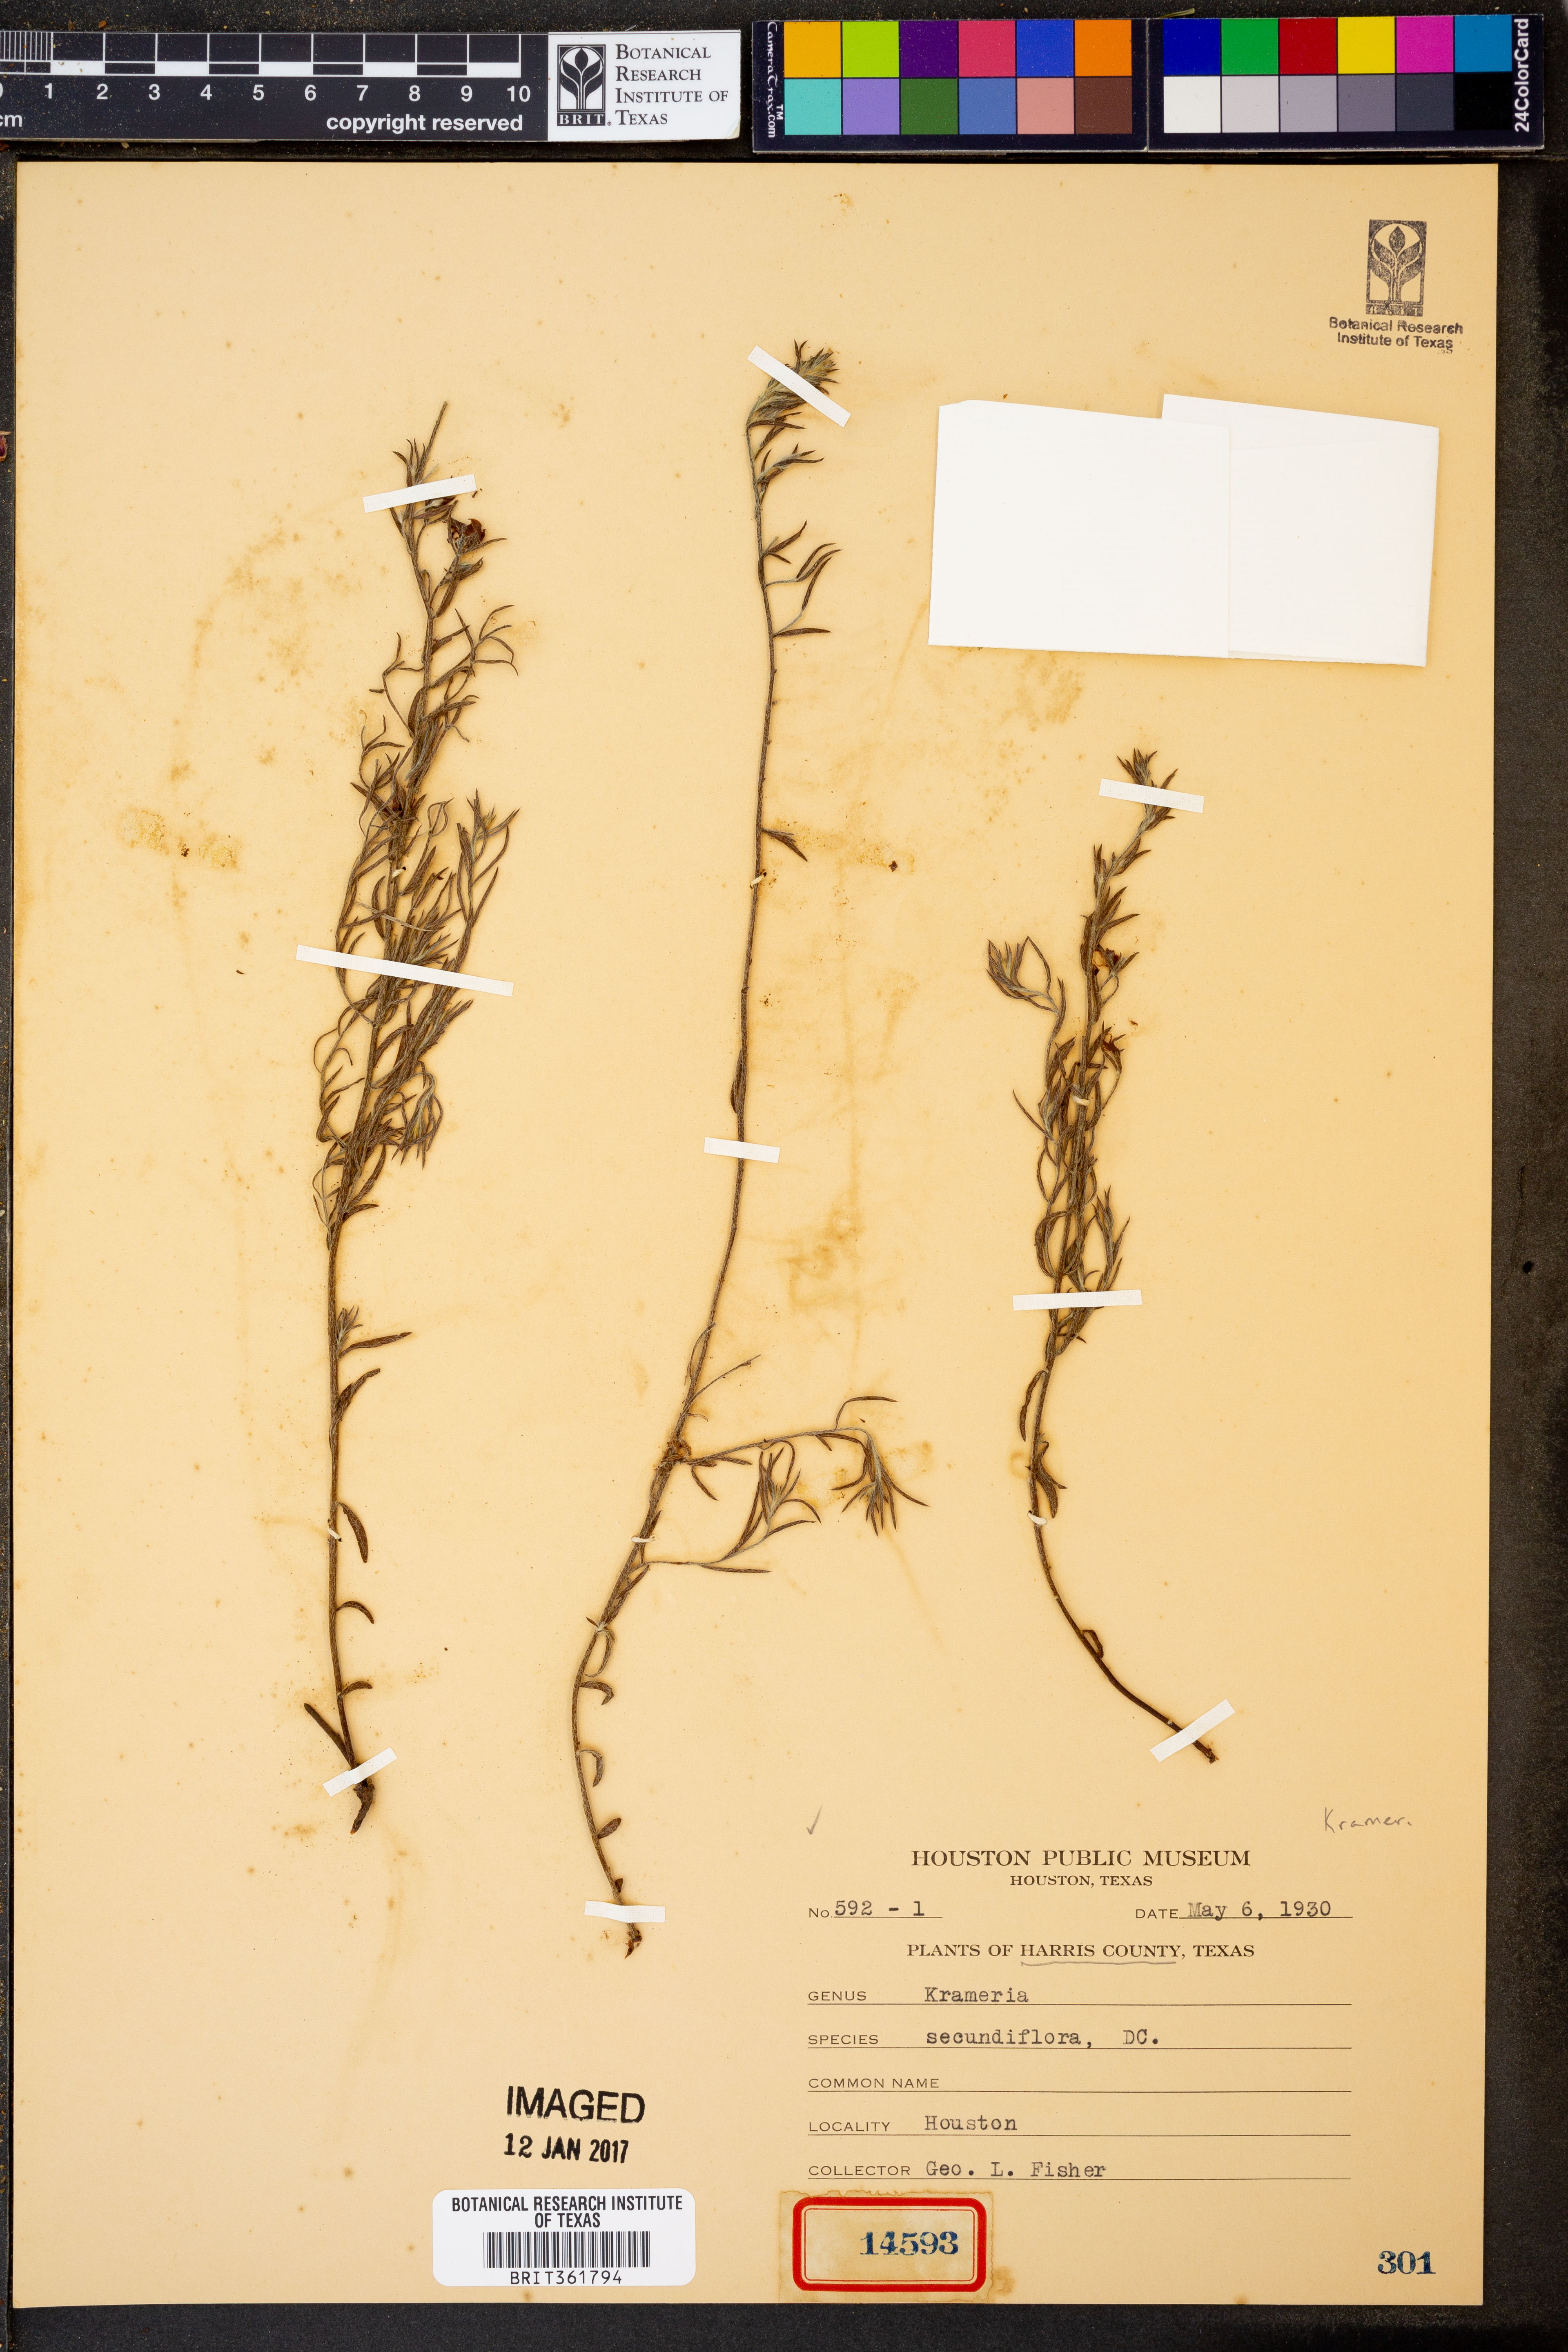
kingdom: Plantae
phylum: Tracheophyta
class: Magnoliopsida
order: Zygophyllales
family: Krameriaceae
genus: Krameria
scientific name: Krameria secundiflora
